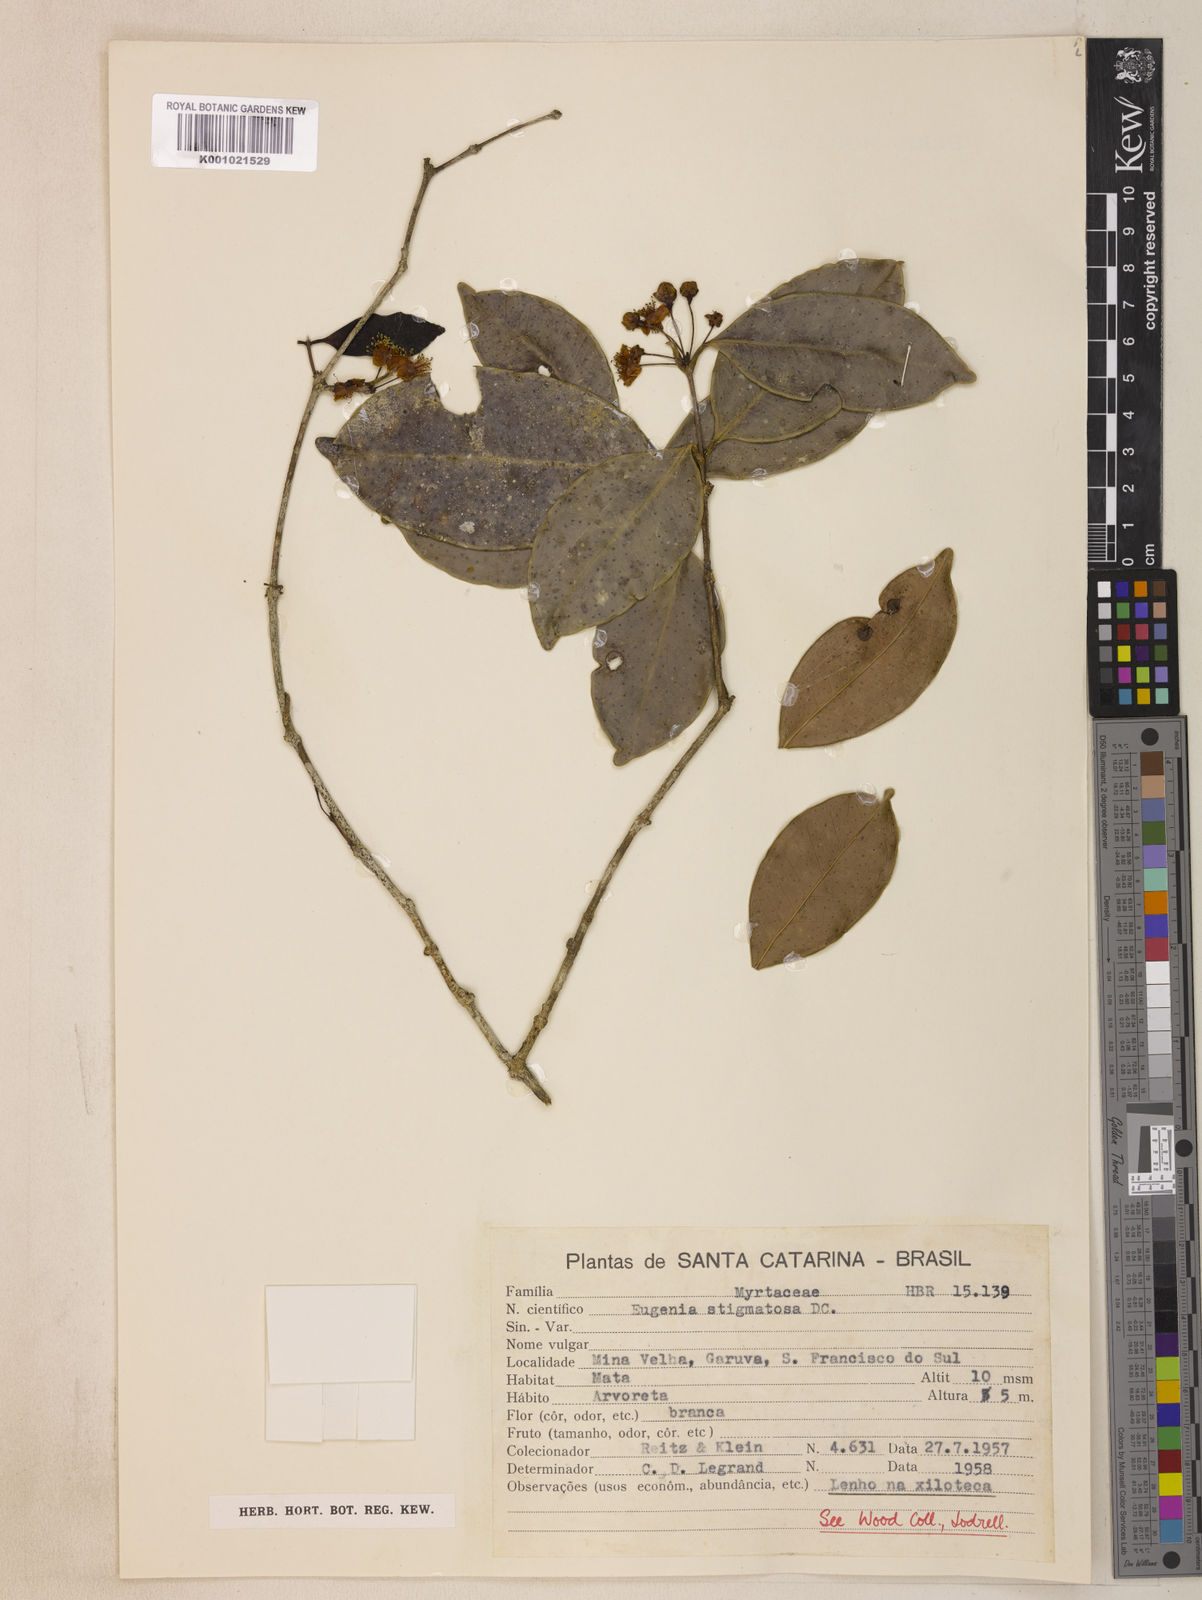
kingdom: Plantae
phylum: Tracheophyta
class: Magnoliopsida
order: Myrtales
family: Myrtaceae
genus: Eugenia
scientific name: Eugenia stigmatosa
